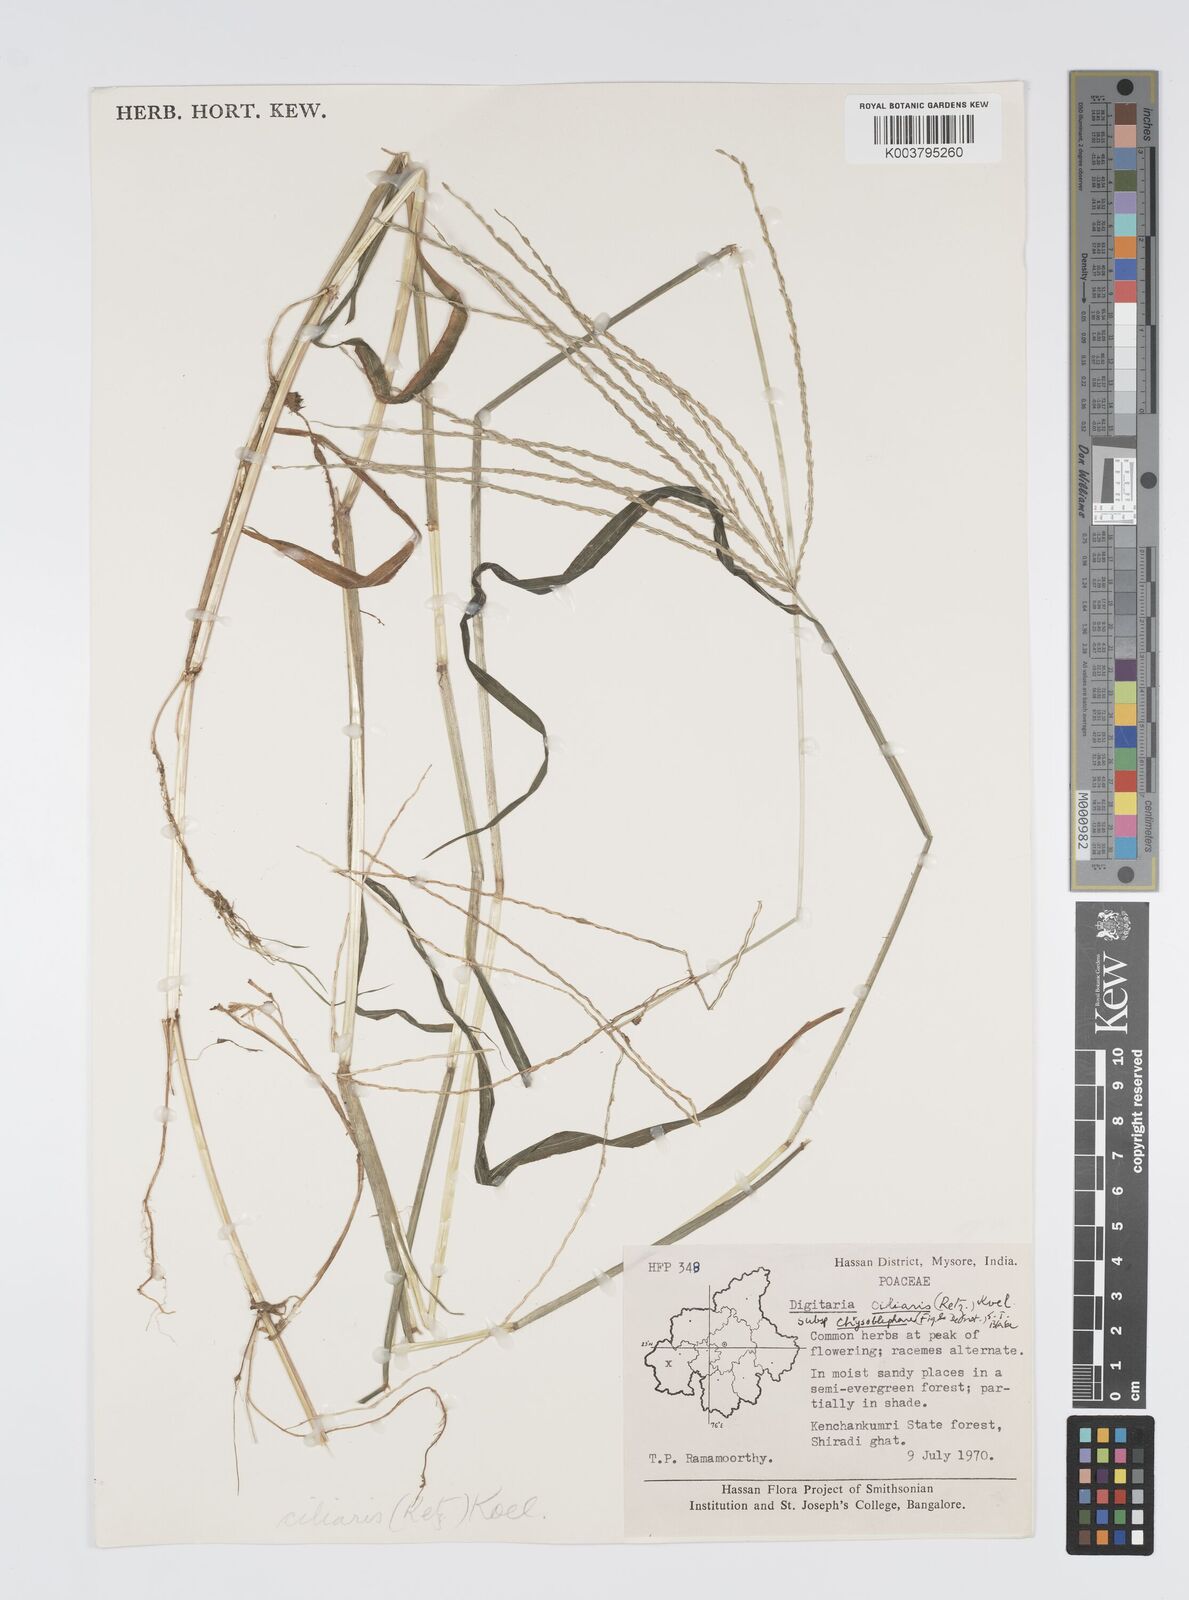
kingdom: Plantae
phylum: Tracheophyta
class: Liliopsida
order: Poales
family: Poaceae
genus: Digitaria
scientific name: Digitaria ciliaris
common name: Tropical finger-grass
